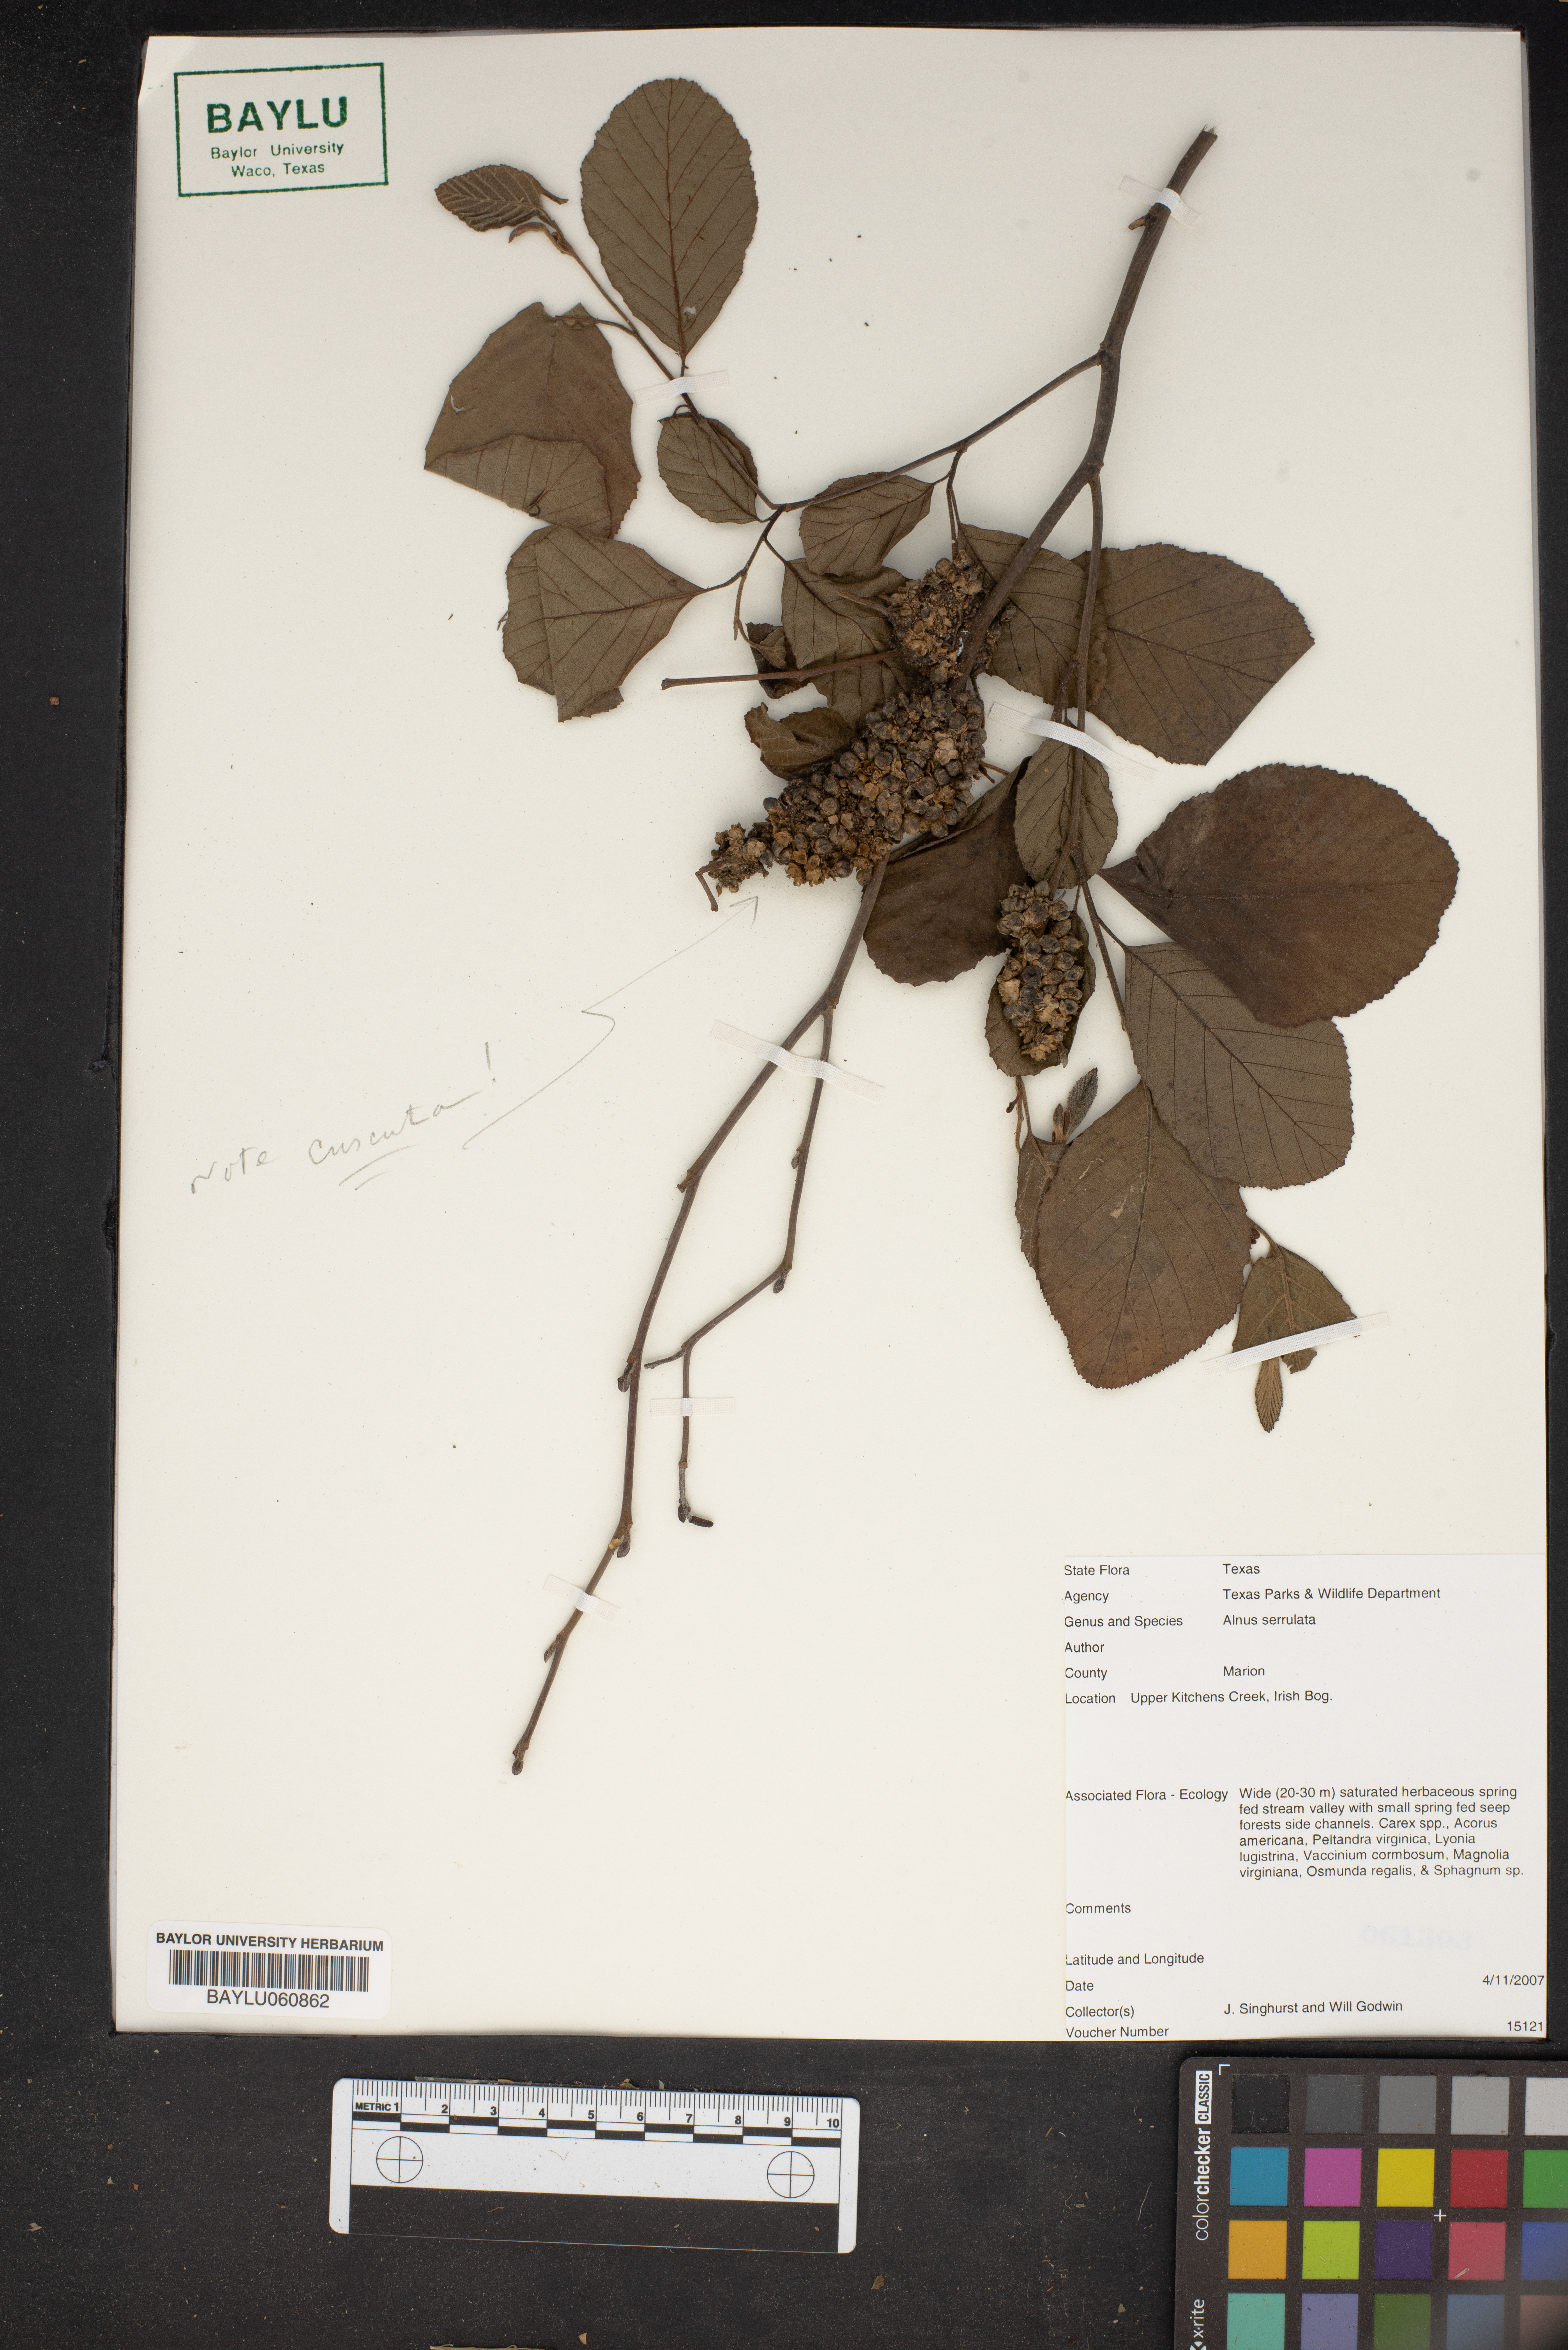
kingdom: Plantae
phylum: Tracheophyta
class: Magnoliopsida
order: Fagales
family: Betulaceae
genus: Alnus
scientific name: Alnus serrulata
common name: Hazel alder
